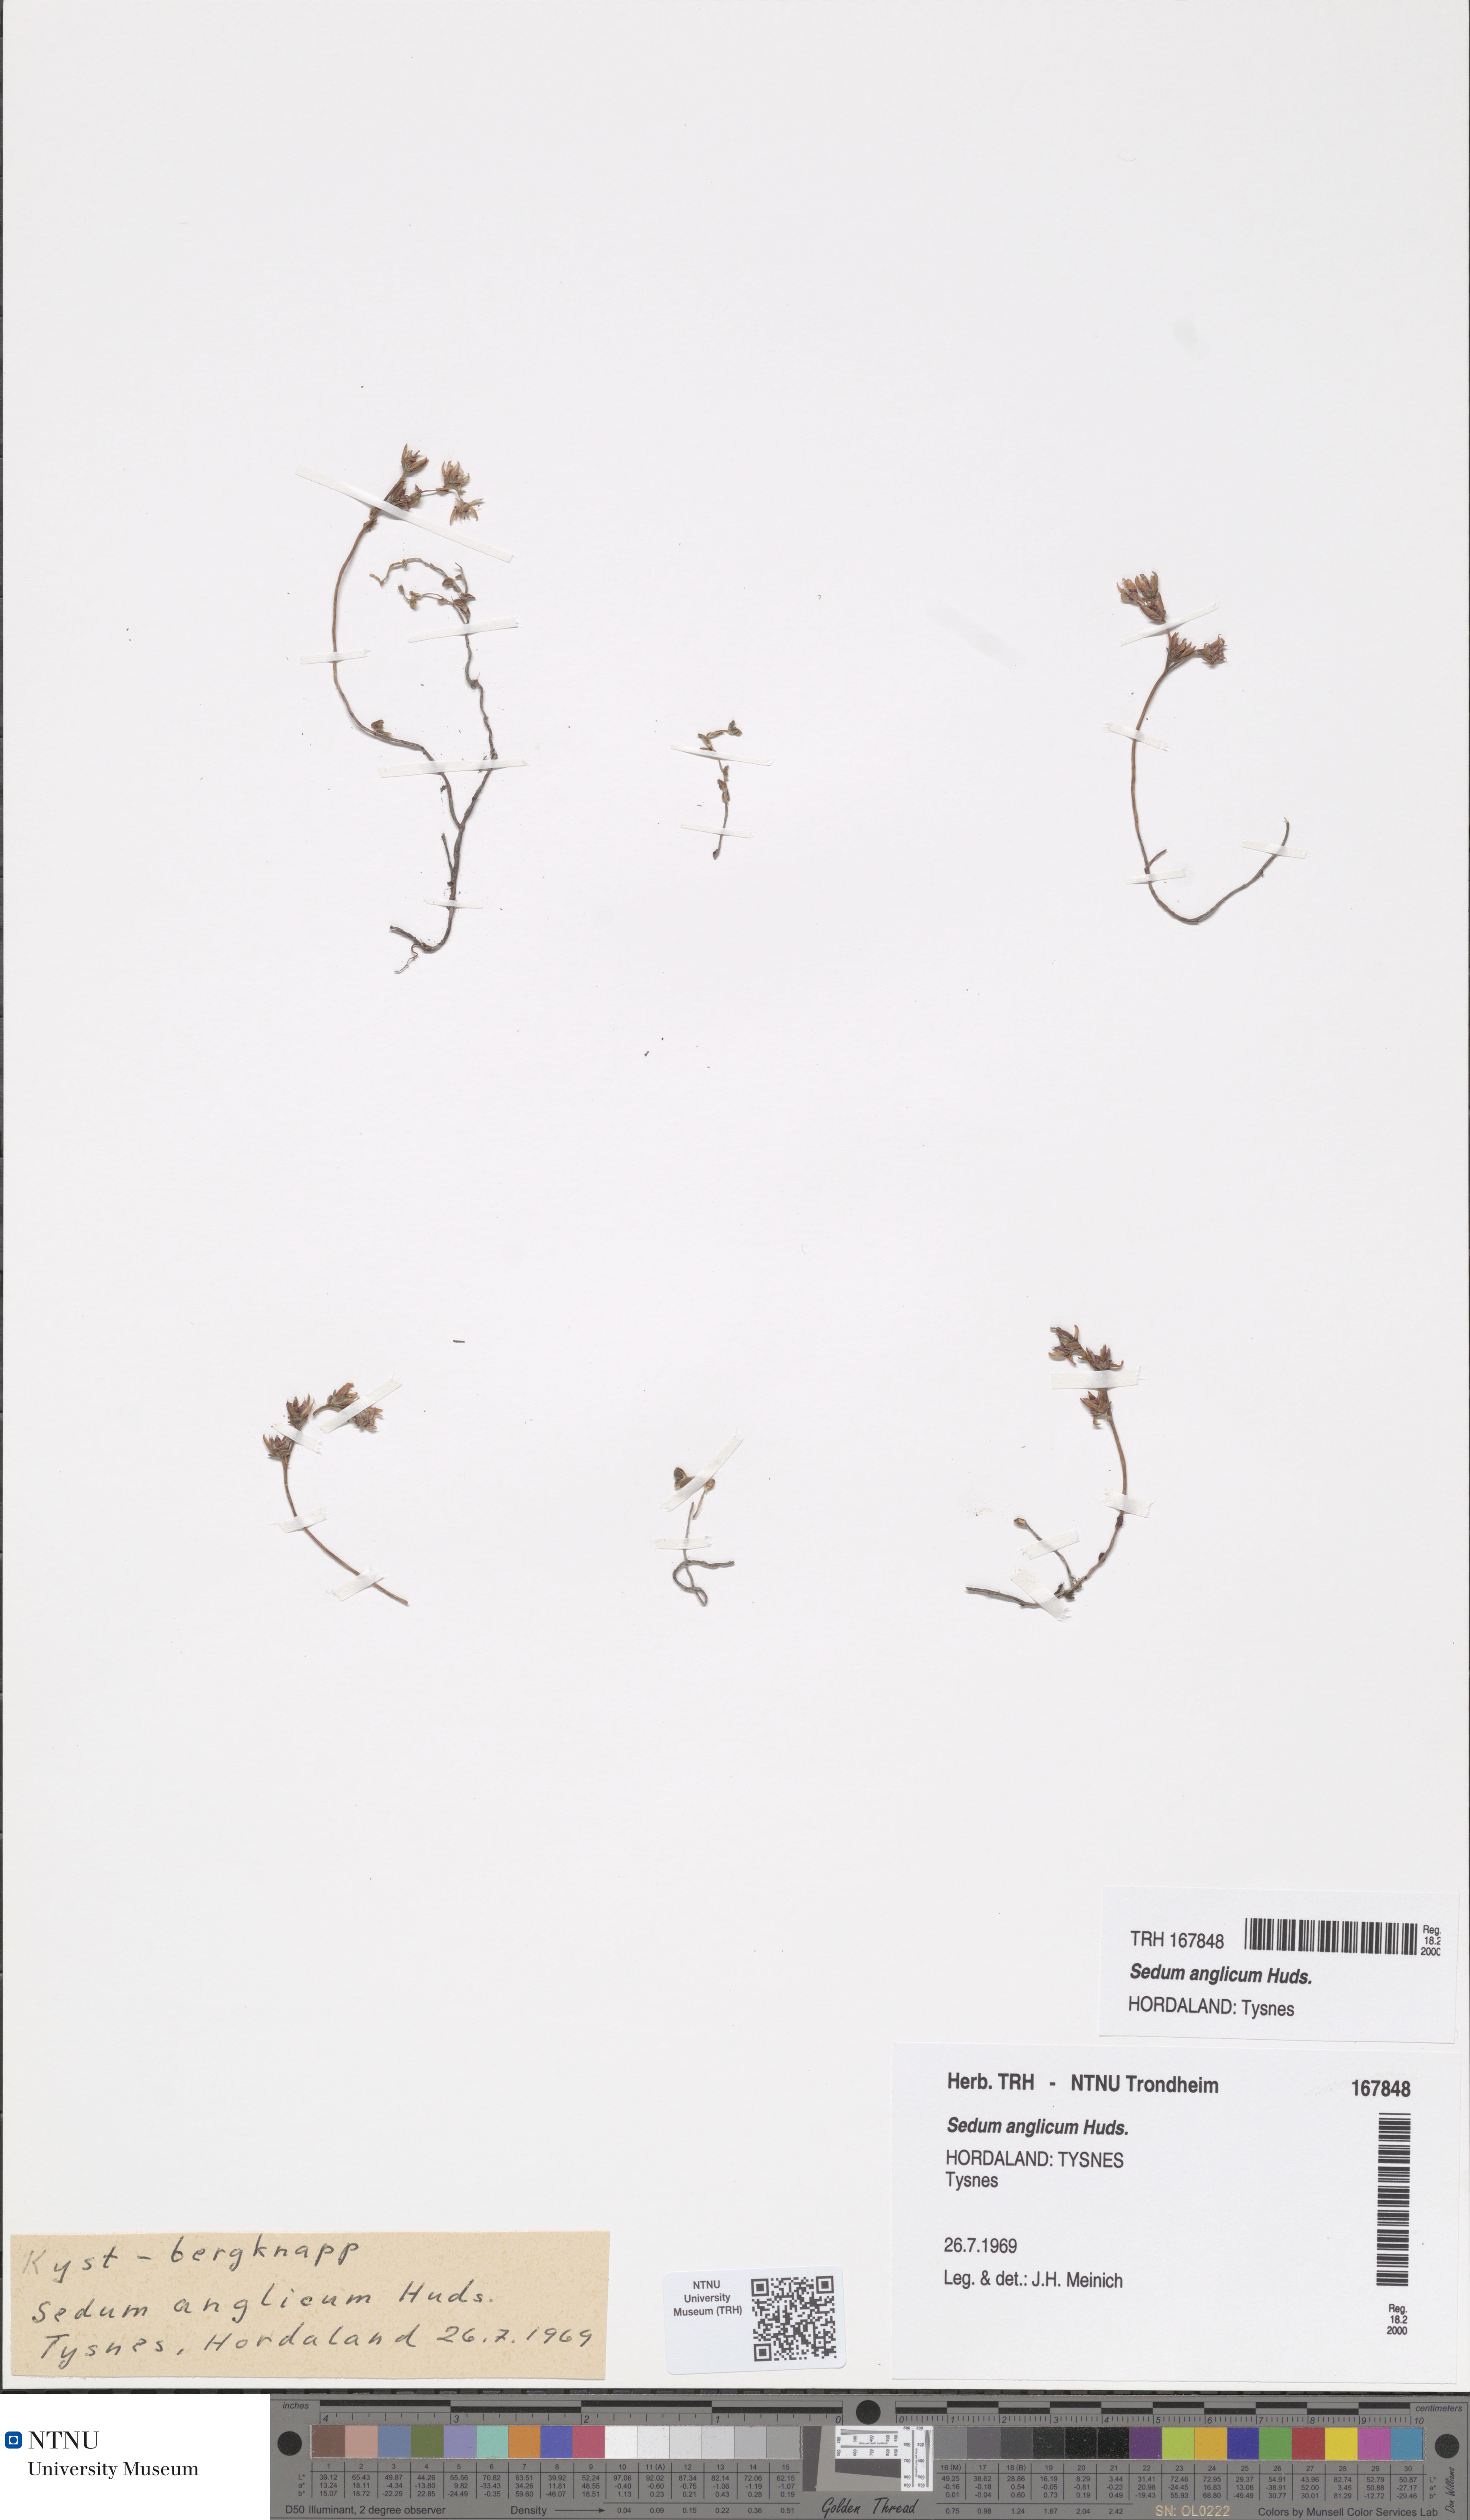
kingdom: Plantae
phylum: Tracheophyta
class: Magnoliopsida
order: Saxifragales
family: Crassulaceae
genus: Sedum
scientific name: Sedum anglicum
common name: English stonecrop
